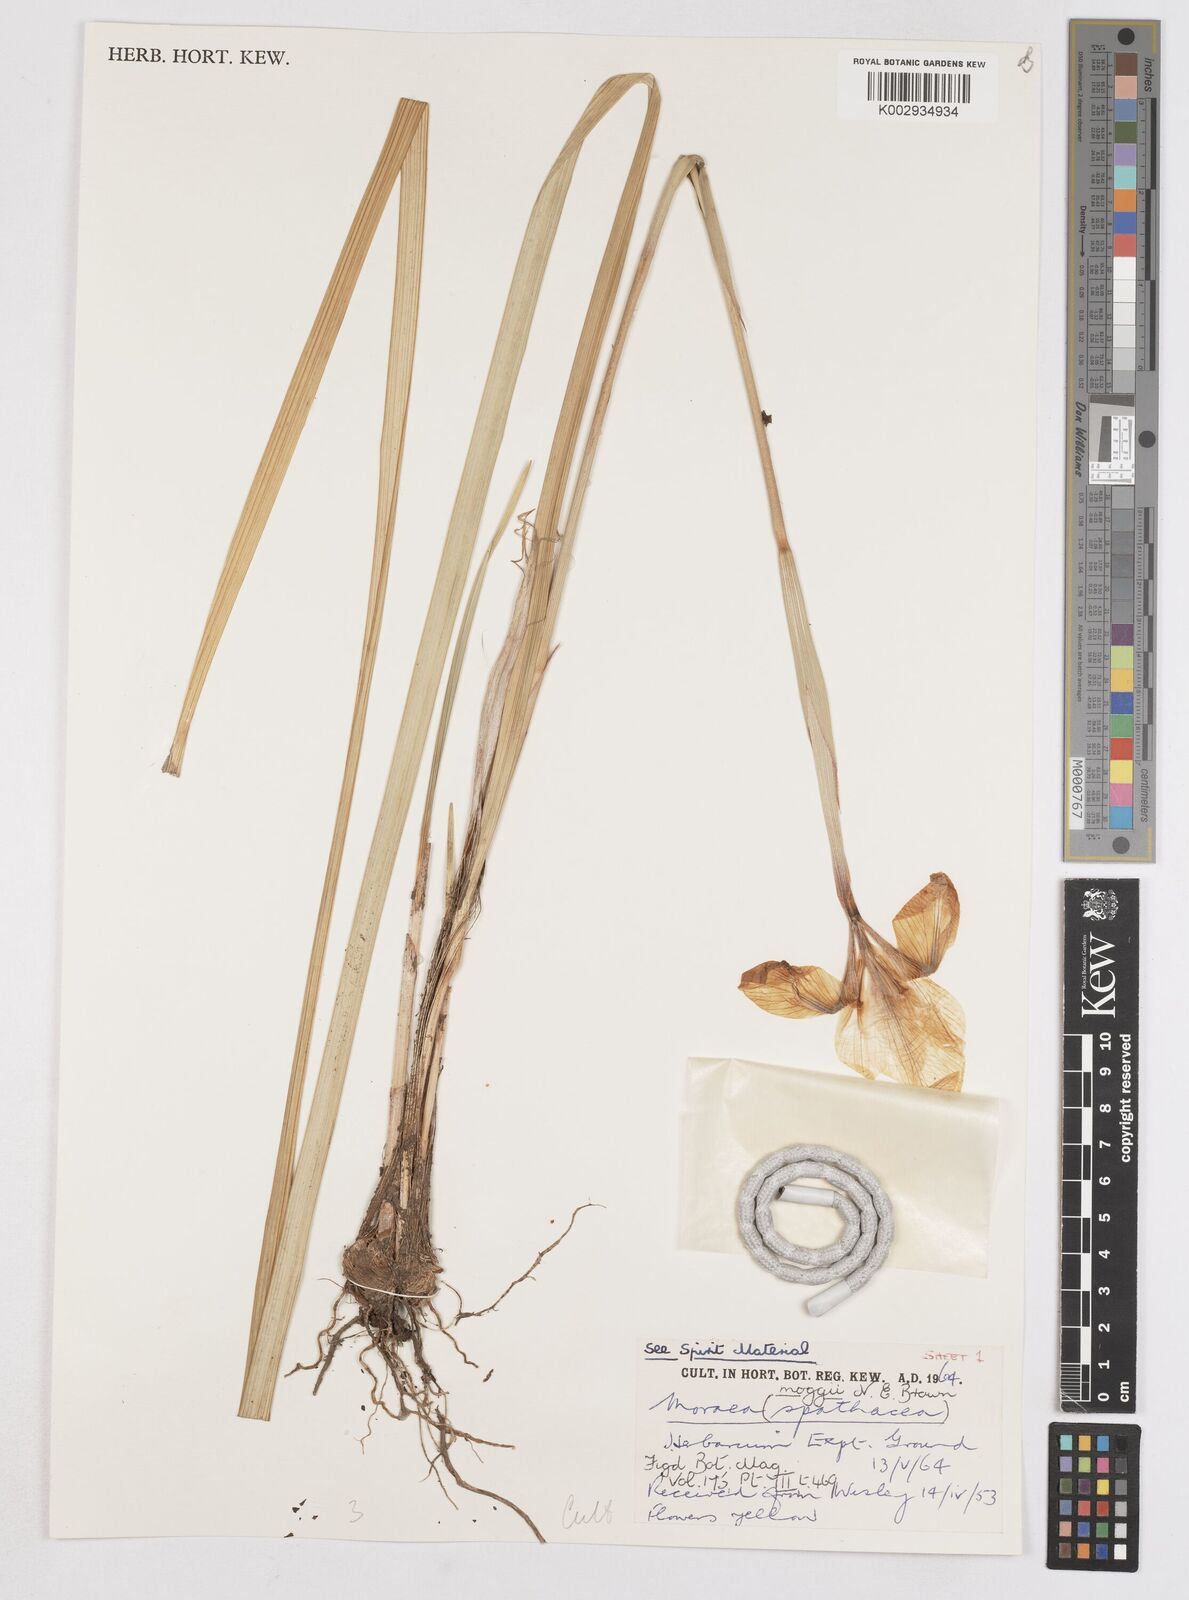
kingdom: Plantae
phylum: Tracheophyta
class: Liliopsida
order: Asparagales
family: Iridaceae
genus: Moraea
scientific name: Moraea moggii
